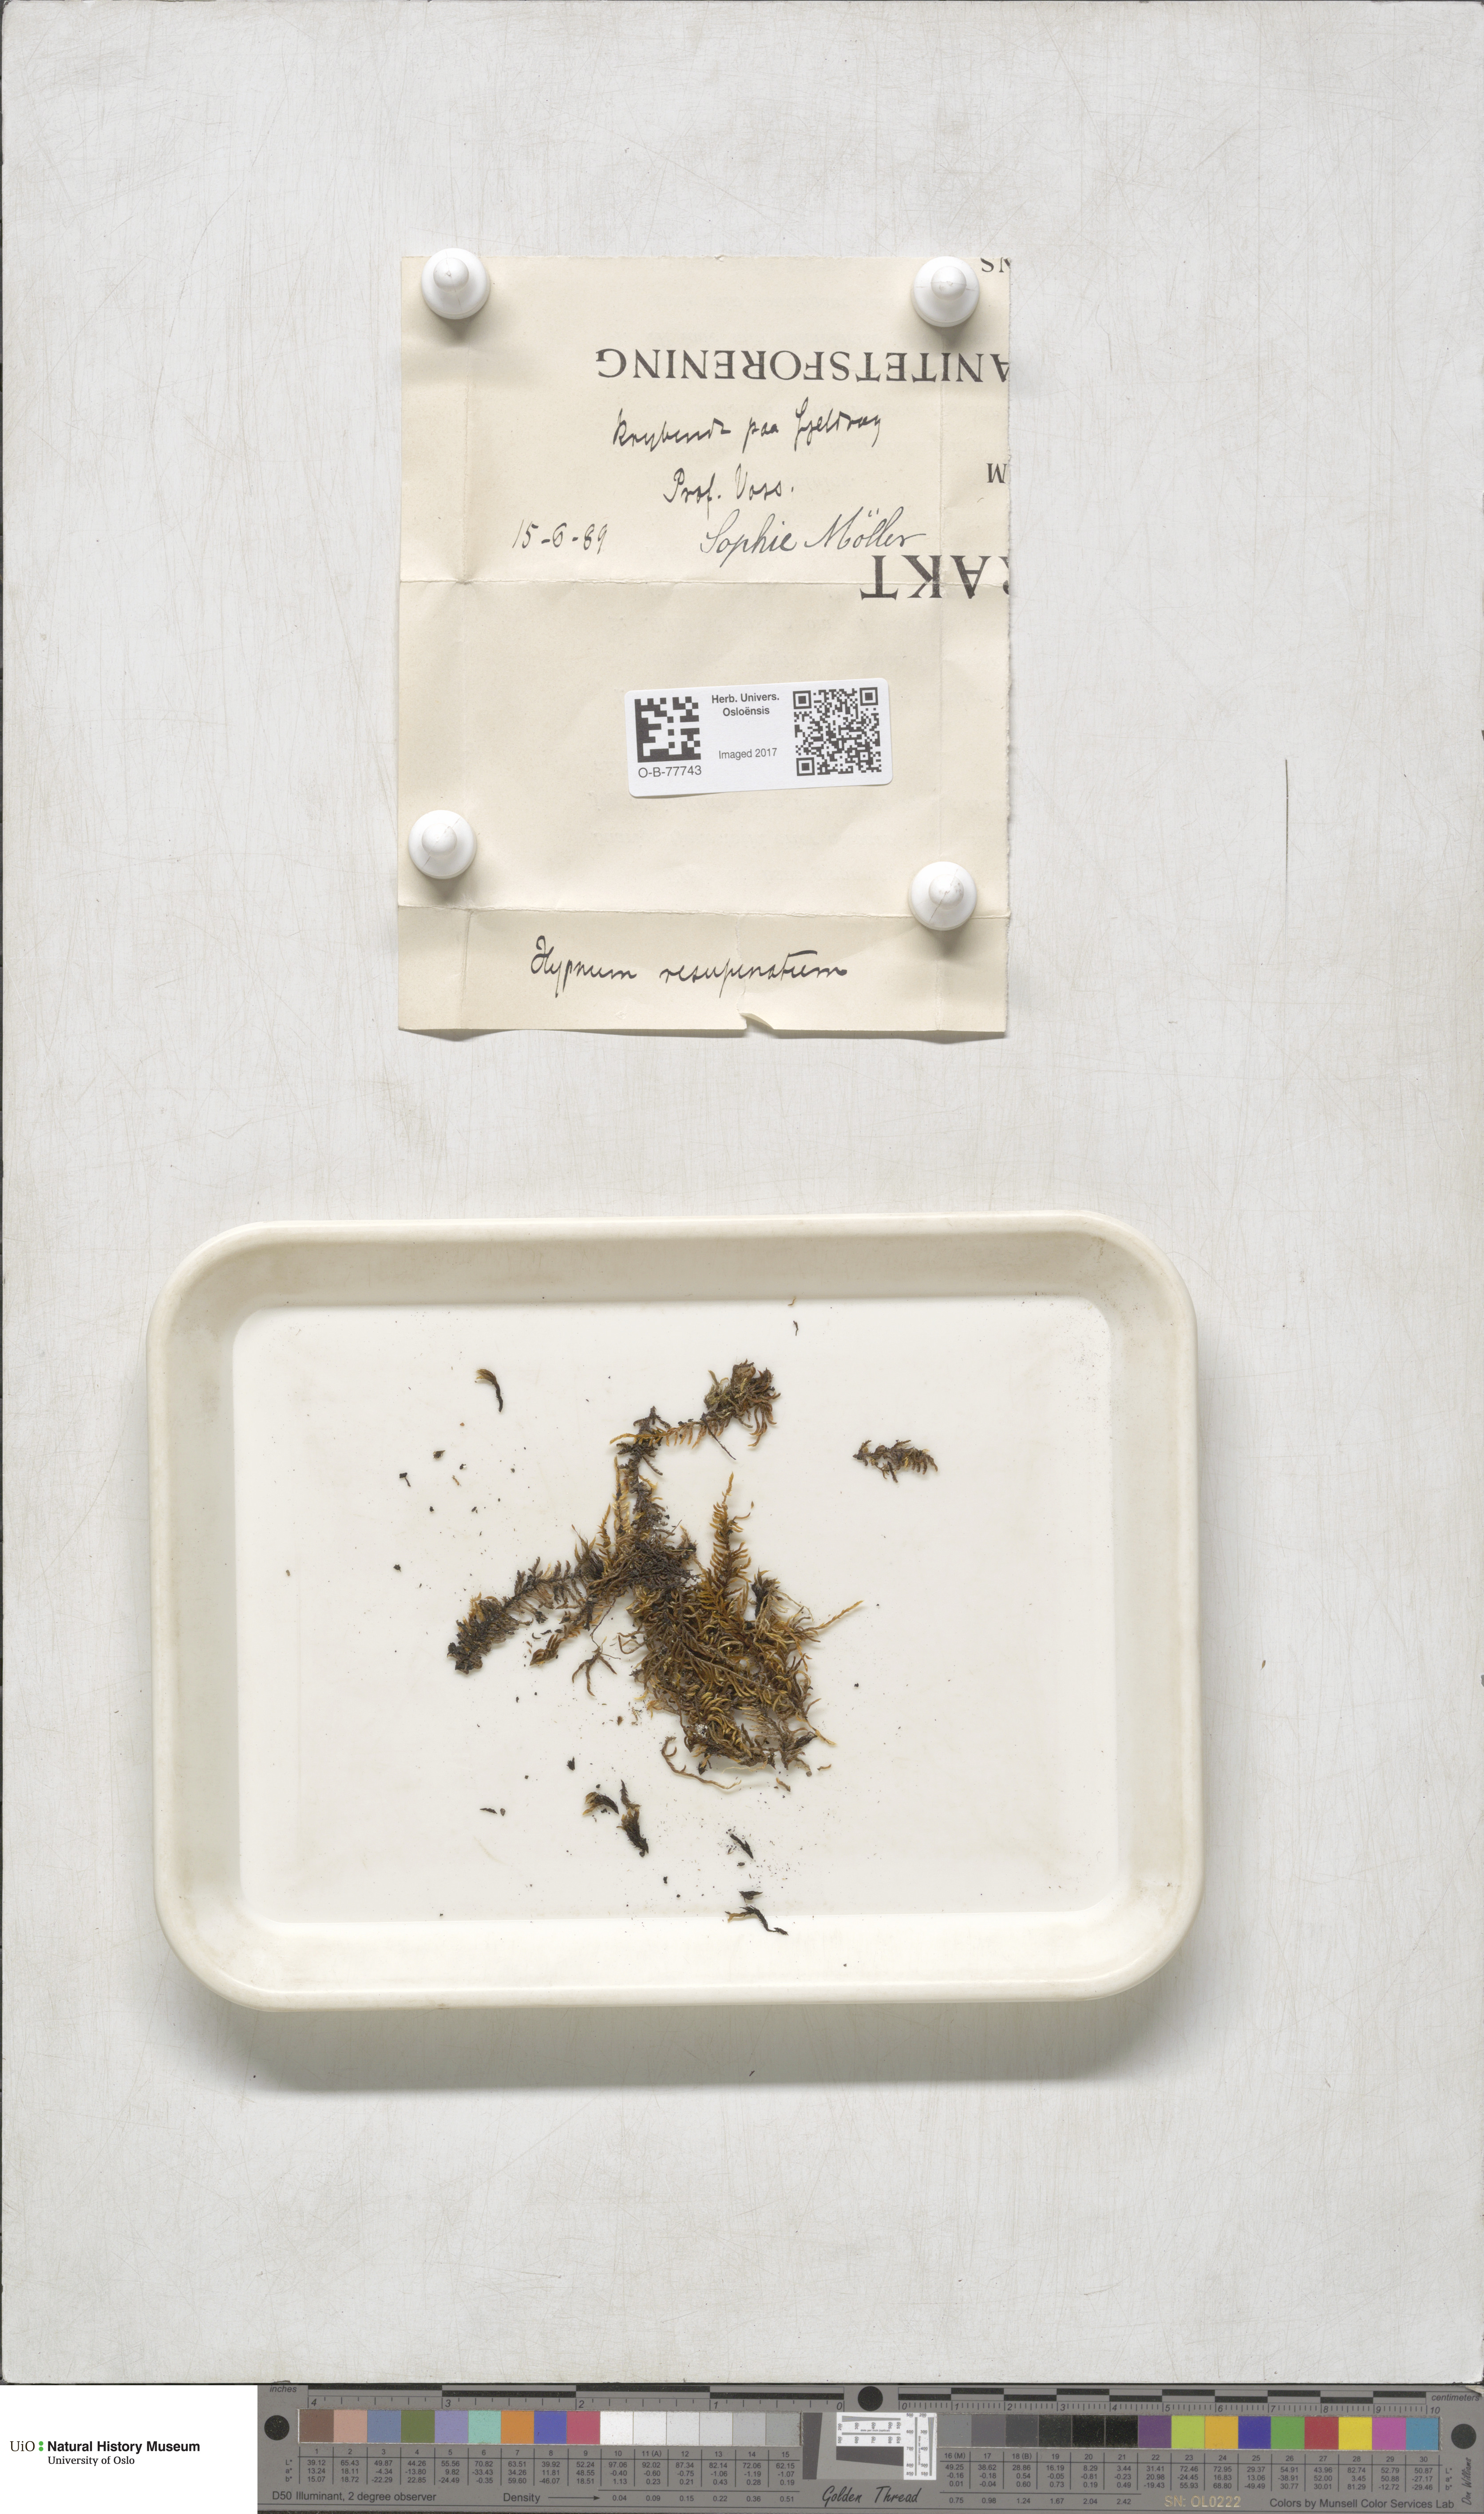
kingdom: Plantae
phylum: Bryophyta
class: Bryopsida
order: Hypnales
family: Hypnaceae
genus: Hypnum
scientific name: Hypnum cupressiforme
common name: Cypress-leaved plait-moss
